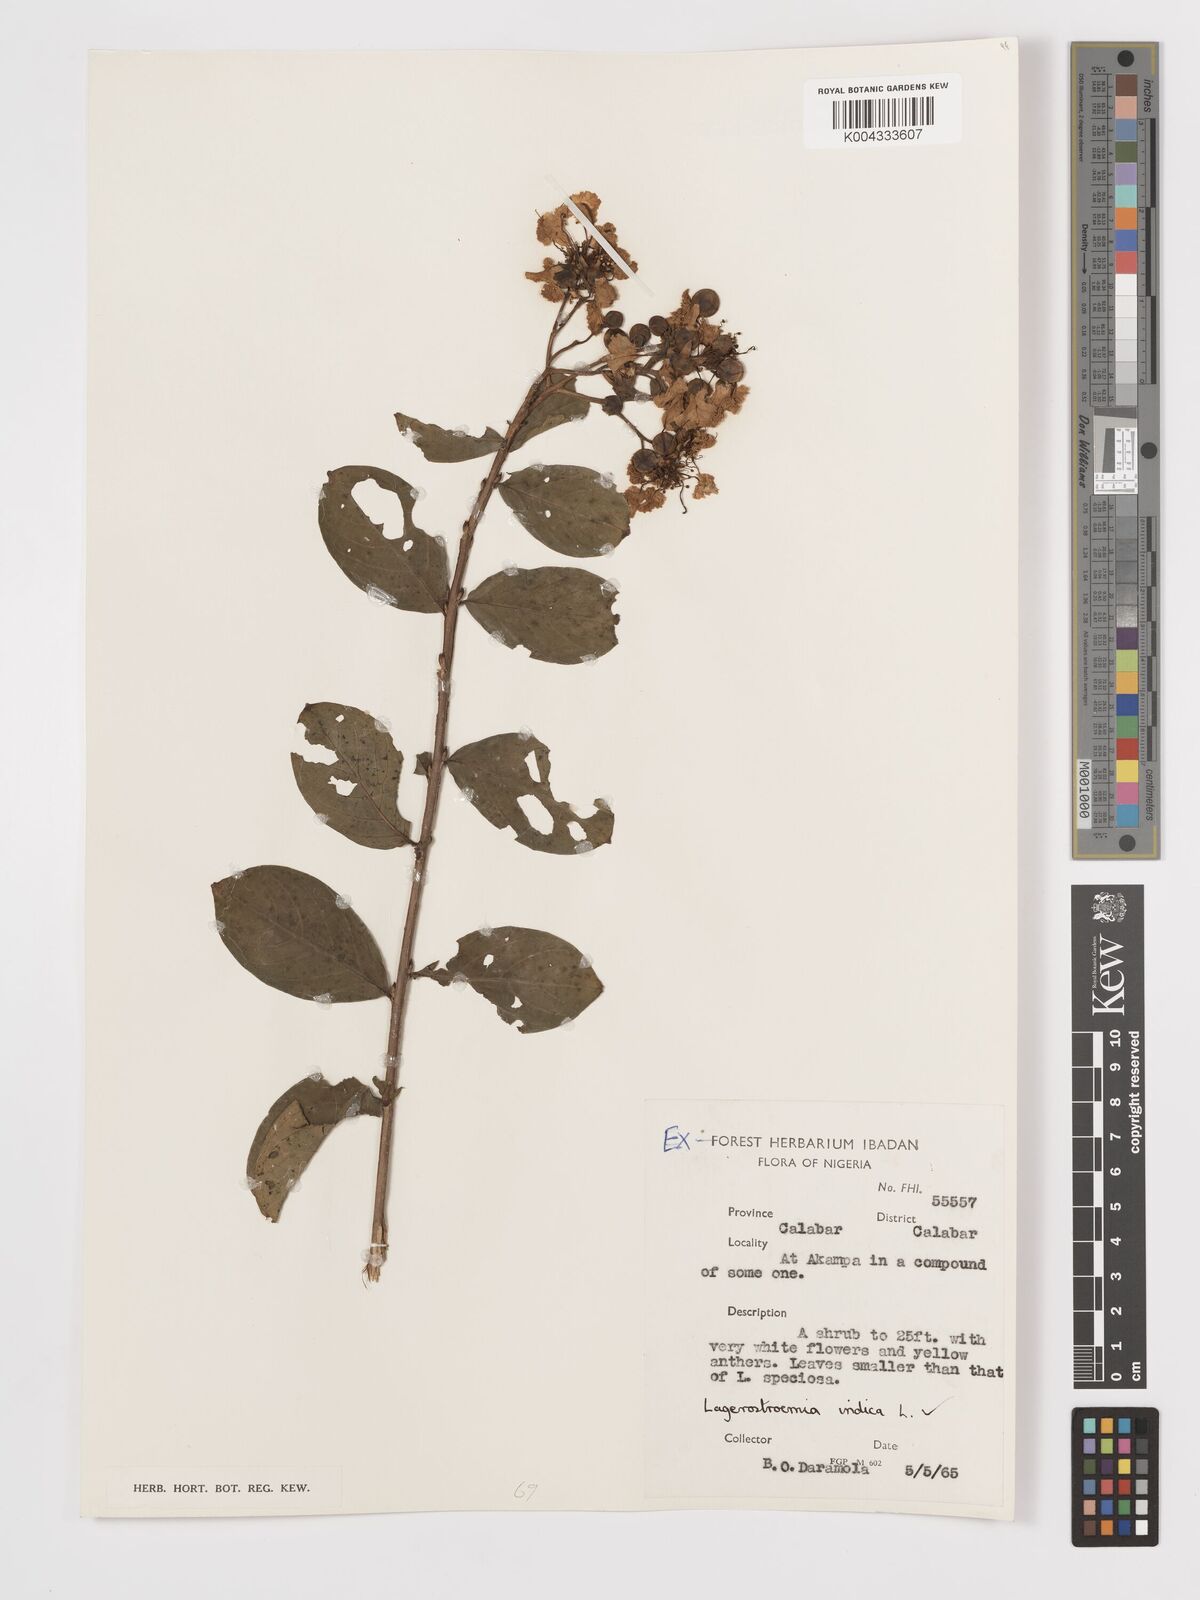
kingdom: Plantae
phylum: Tracheophyta
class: Magnoliopsida
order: Myrtales
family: Lythraceae
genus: Lagerstroemia
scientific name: Lagerstroemia indica
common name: Crape-myrtle
